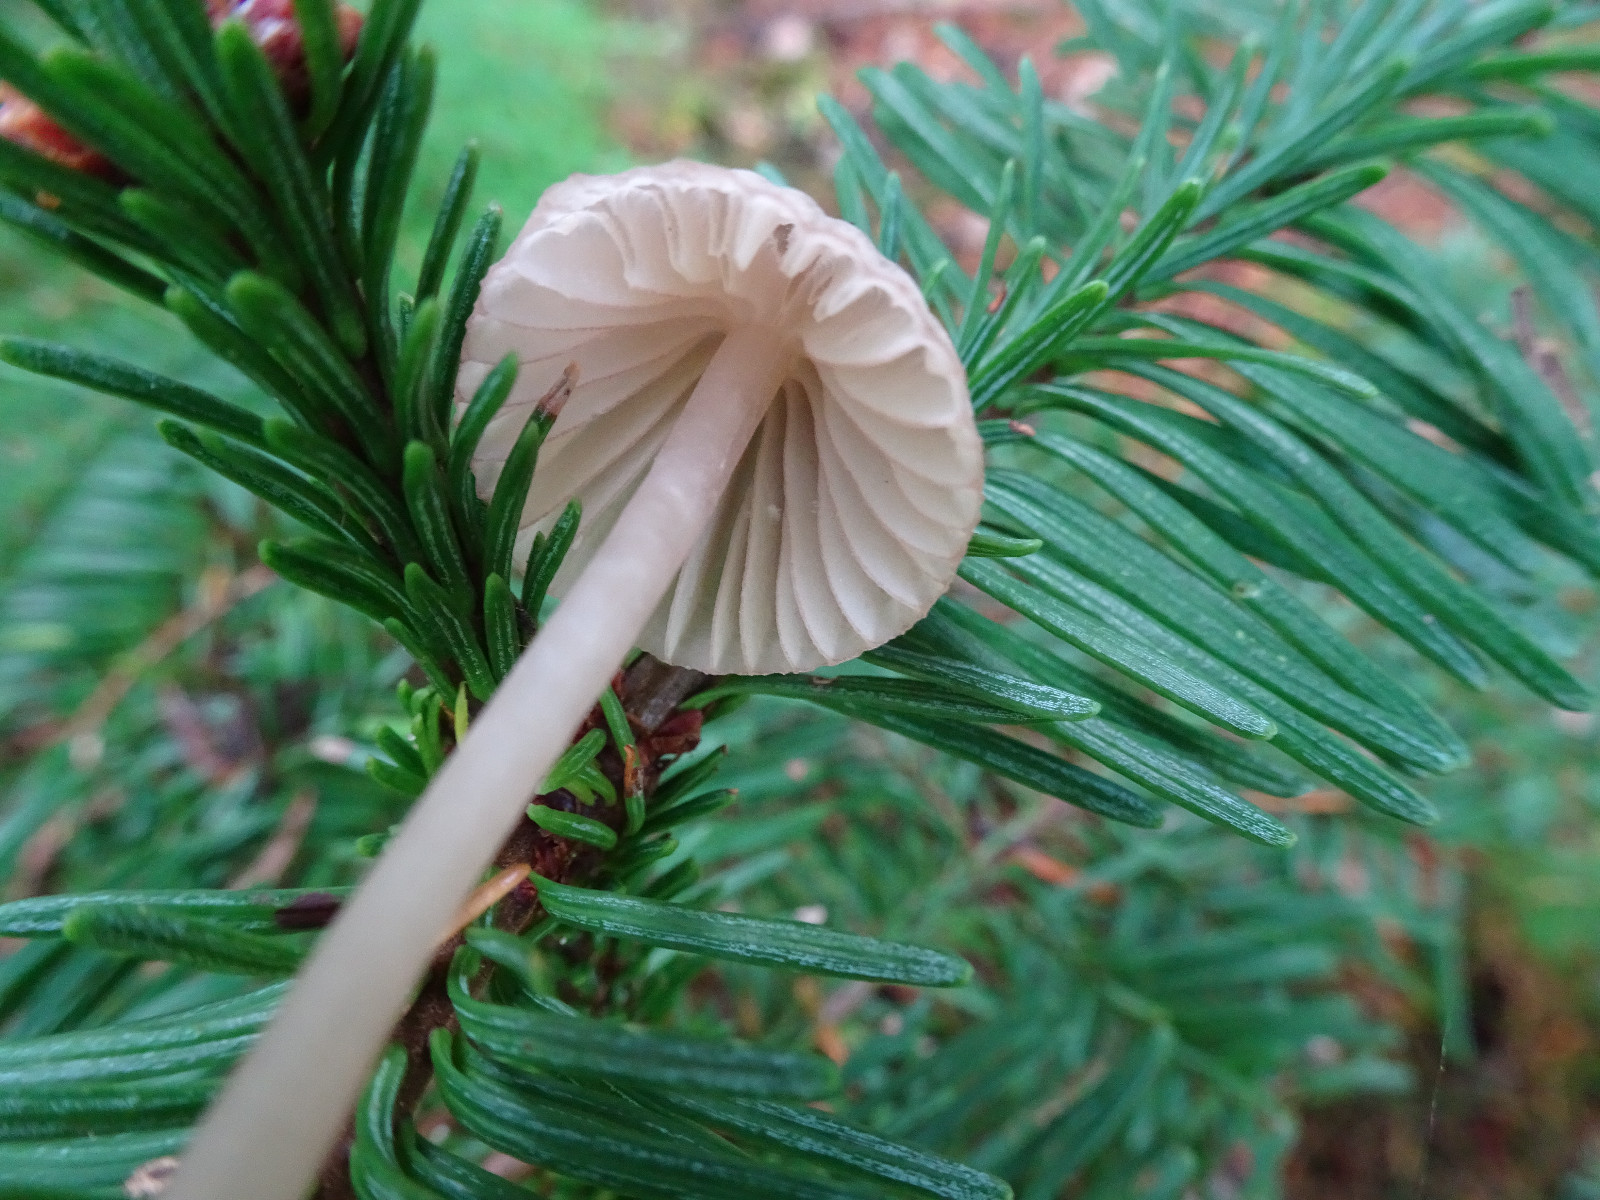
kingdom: Fungi
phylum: Basidiomycota
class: Agaricomycetes
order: Agaricales
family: Mycenaceae
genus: Mycena
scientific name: Mycena capillaripes
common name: nåle-huesvamp
